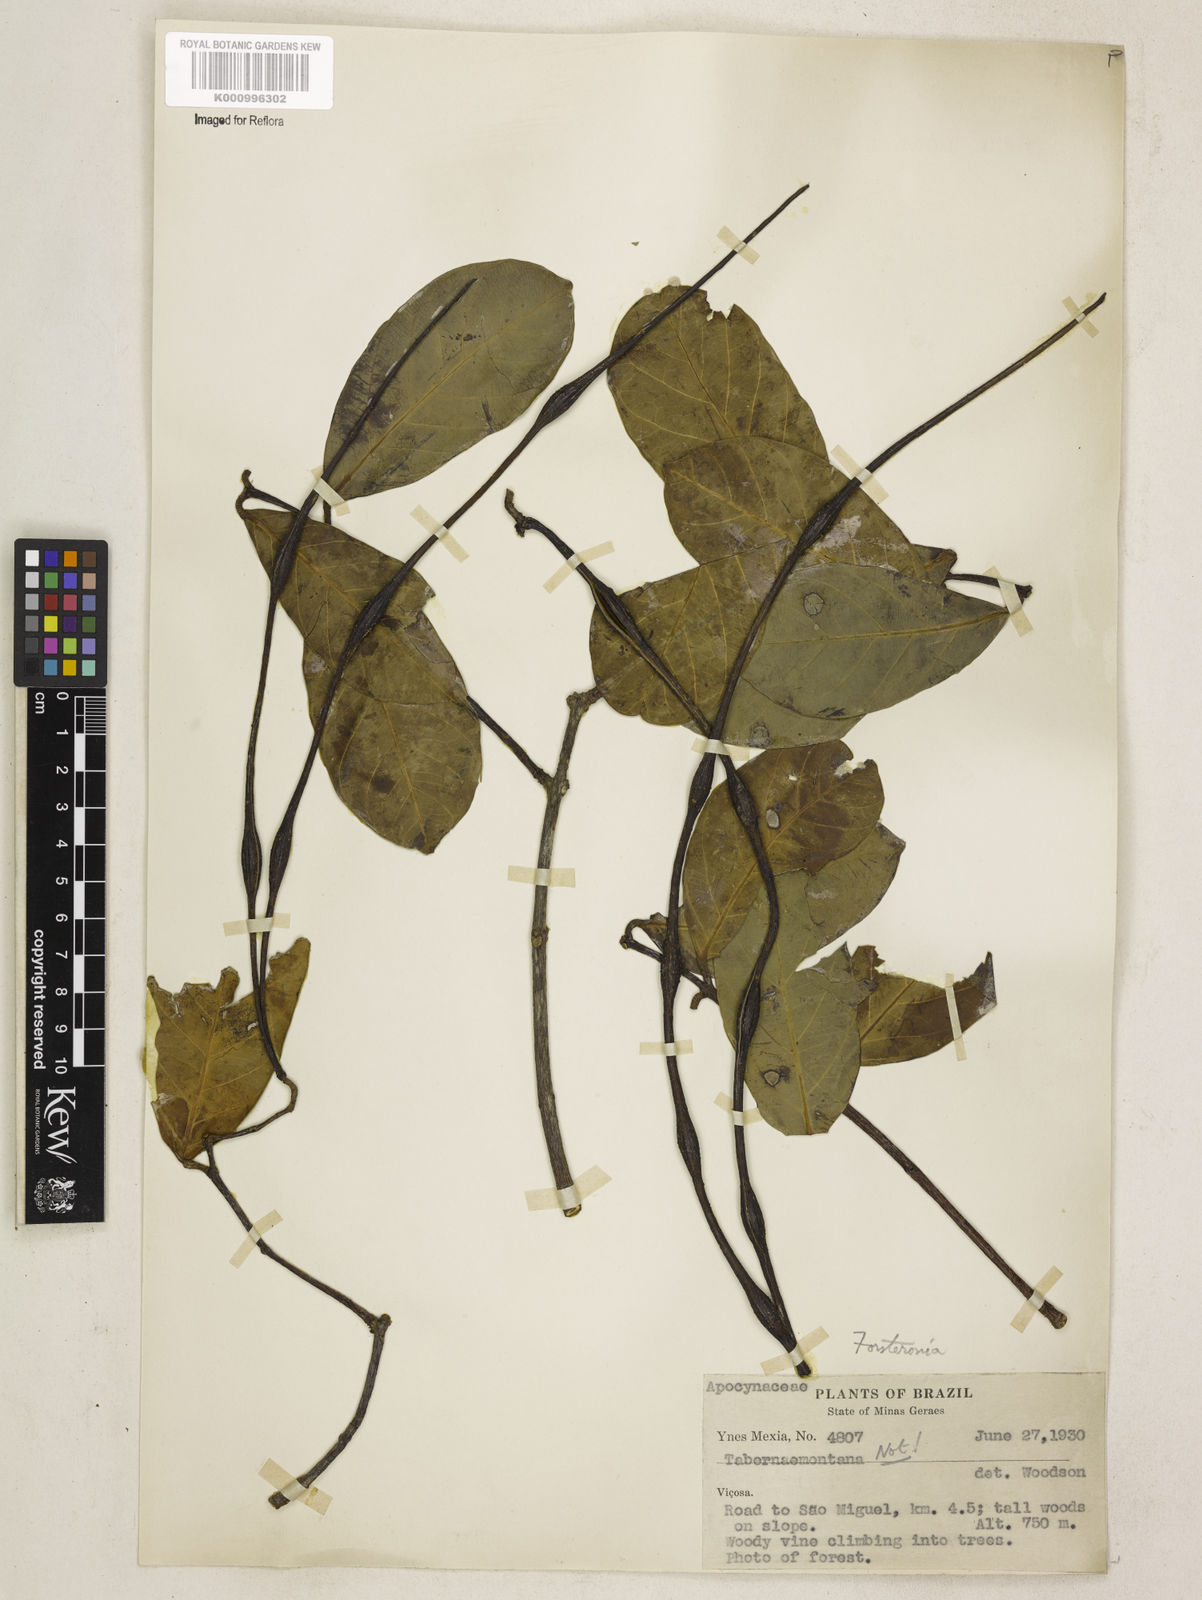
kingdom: Plantae
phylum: Tracheophyta
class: Magnoliopsida
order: Gentianales
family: Apocynaceae
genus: Forsteronia
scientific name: Forsteronia
